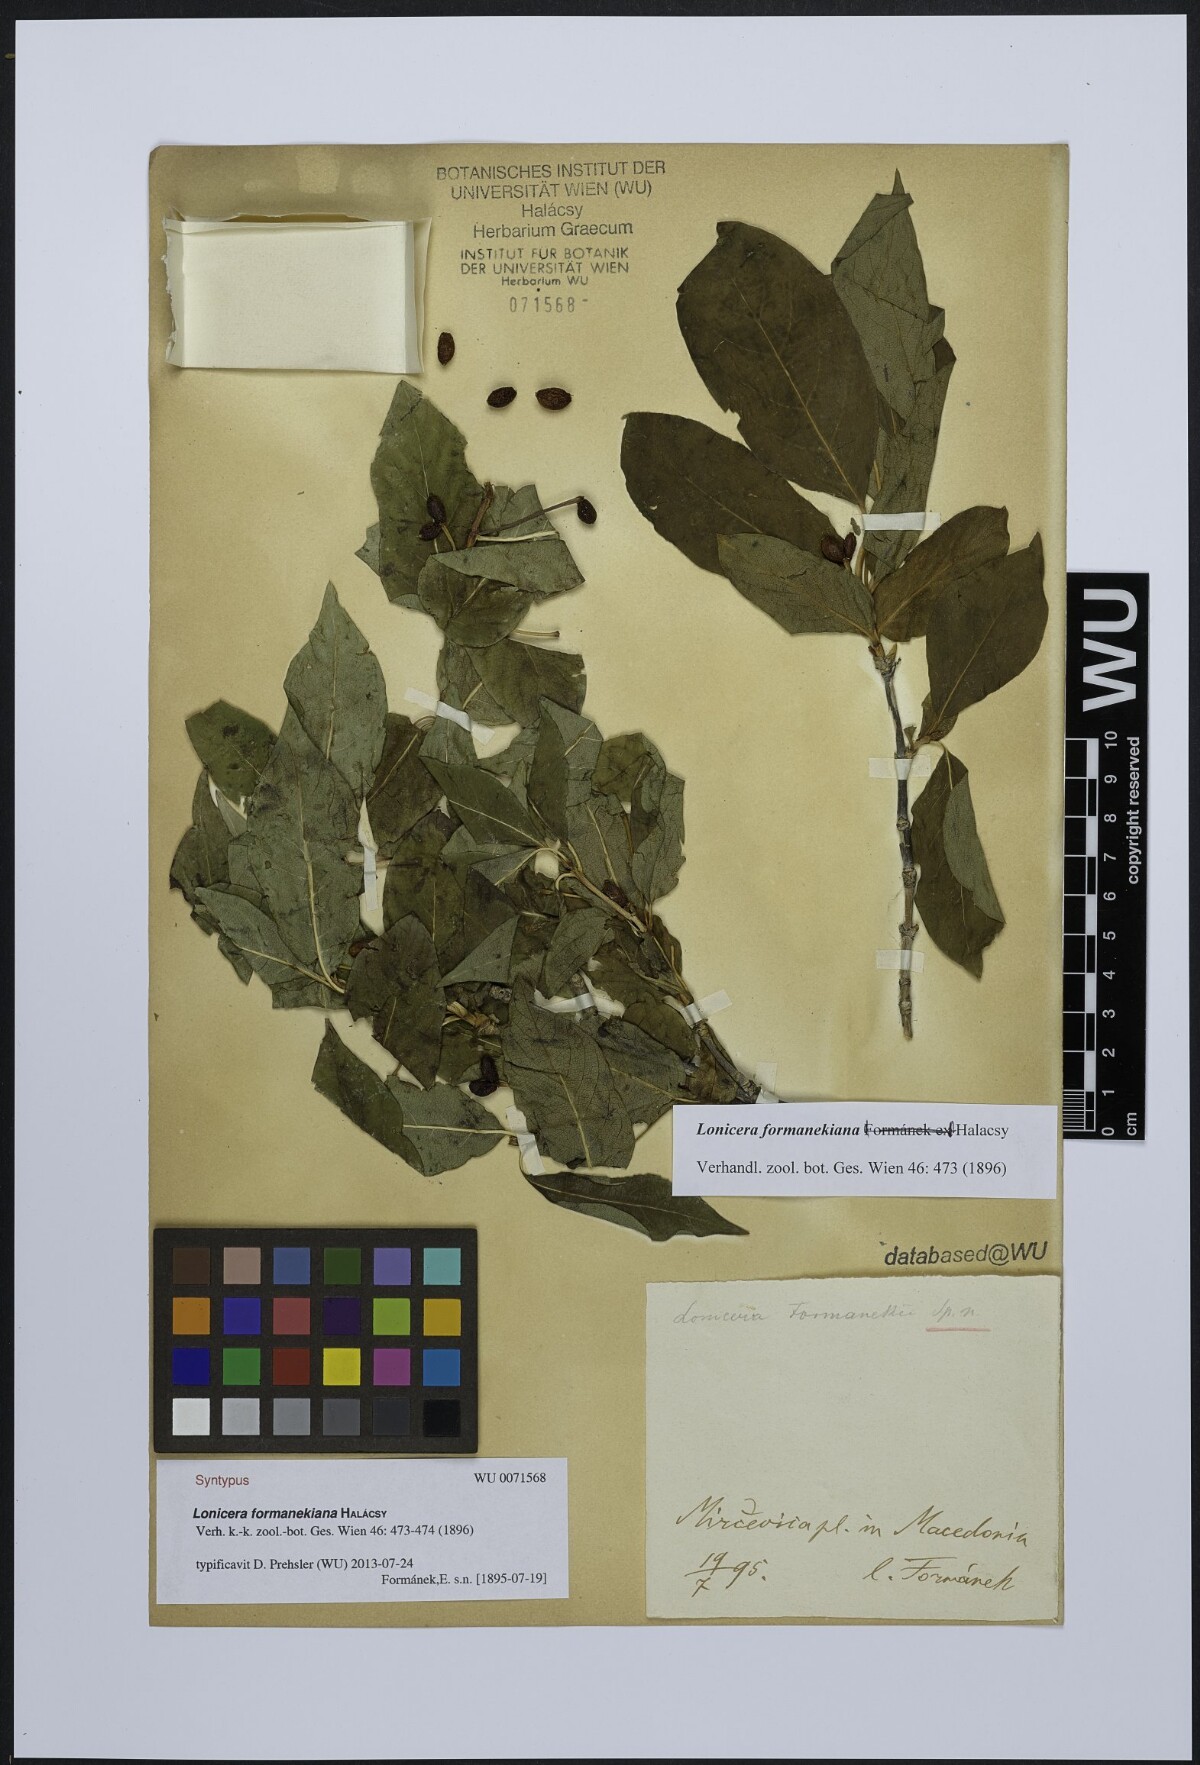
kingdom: Plantae
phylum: Tracheophyta
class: Magnoliopsida
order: Dipsacales
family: Caprifoliaceae
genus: Lonicera
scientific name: Lonicera alpigena
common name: Alpine honeysuckle
